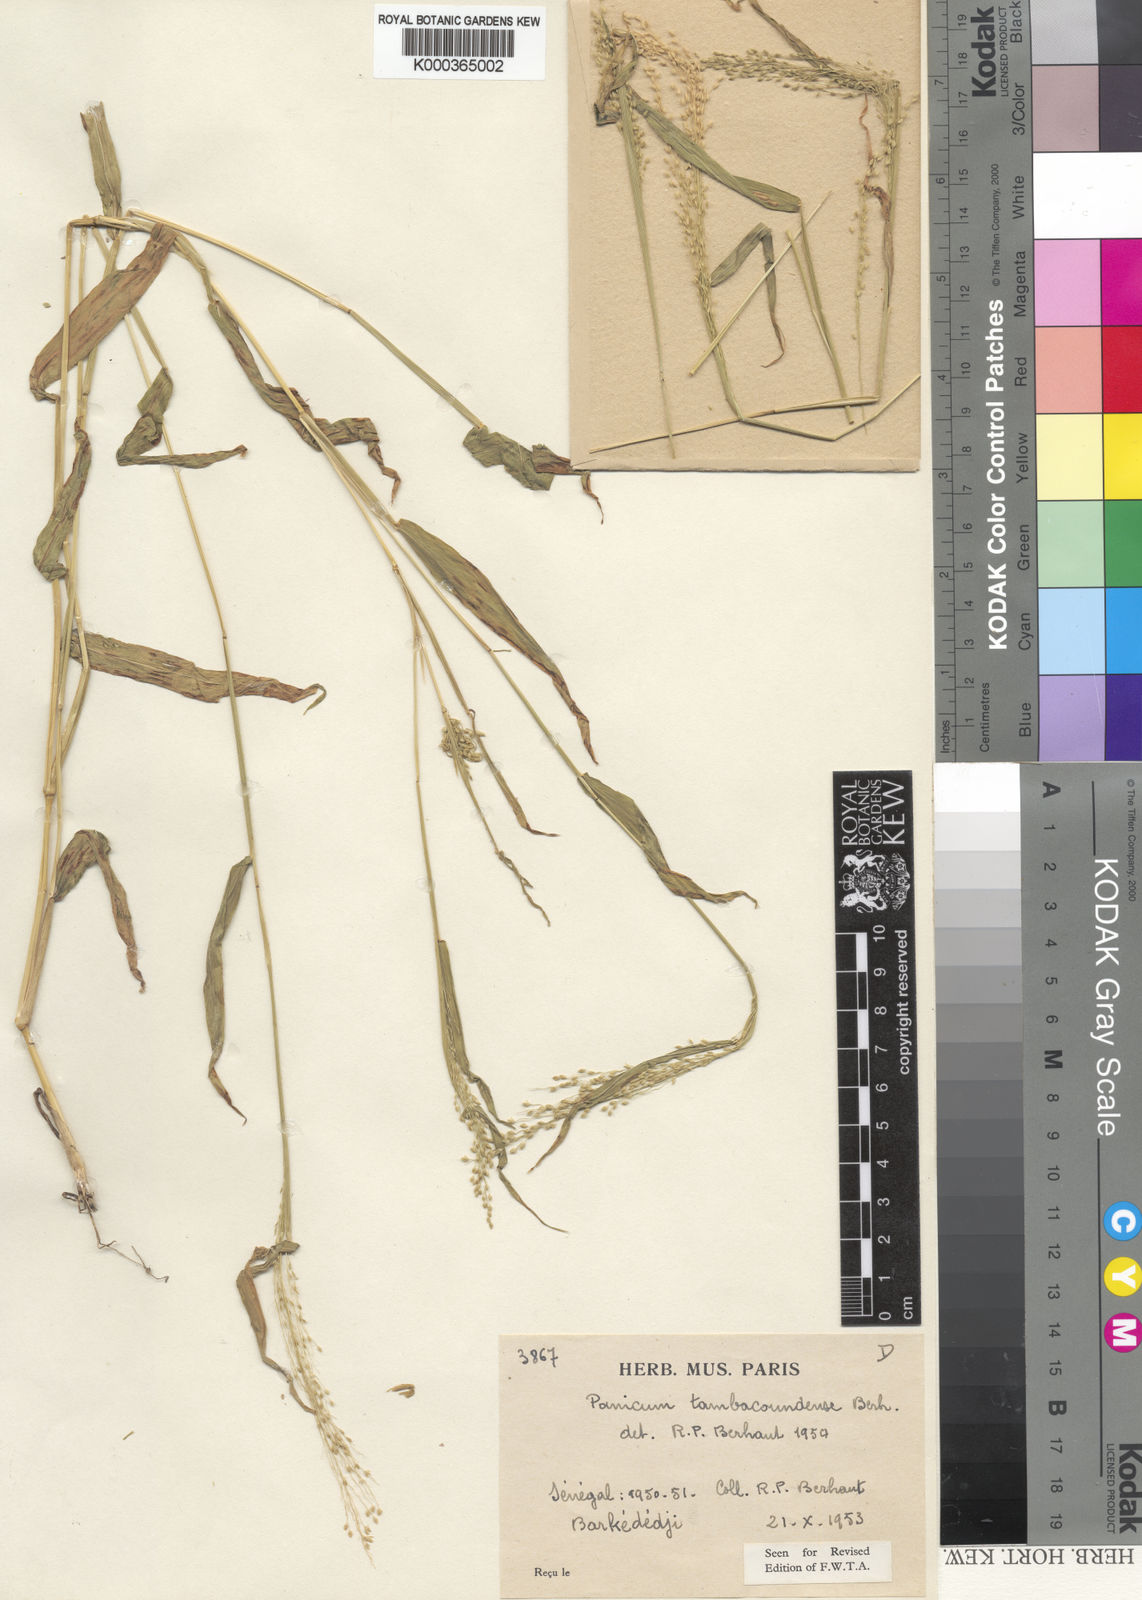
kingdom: Plantae
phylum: Tracheophyta
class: Liliopsida
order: Poales
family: Poaceae
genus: Trichanthecium
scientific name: Trichanthecium gracilicaule
